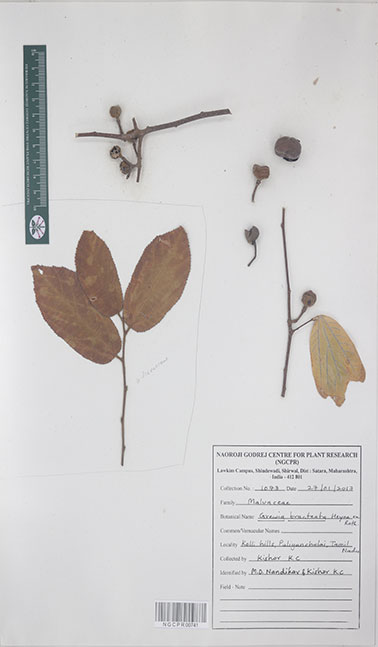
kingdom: Plantae
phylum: Tracheophyta
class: Magnoliopsida
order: Malvales
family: Malvaceae
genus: Grewia
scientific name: Grewia bracteata
